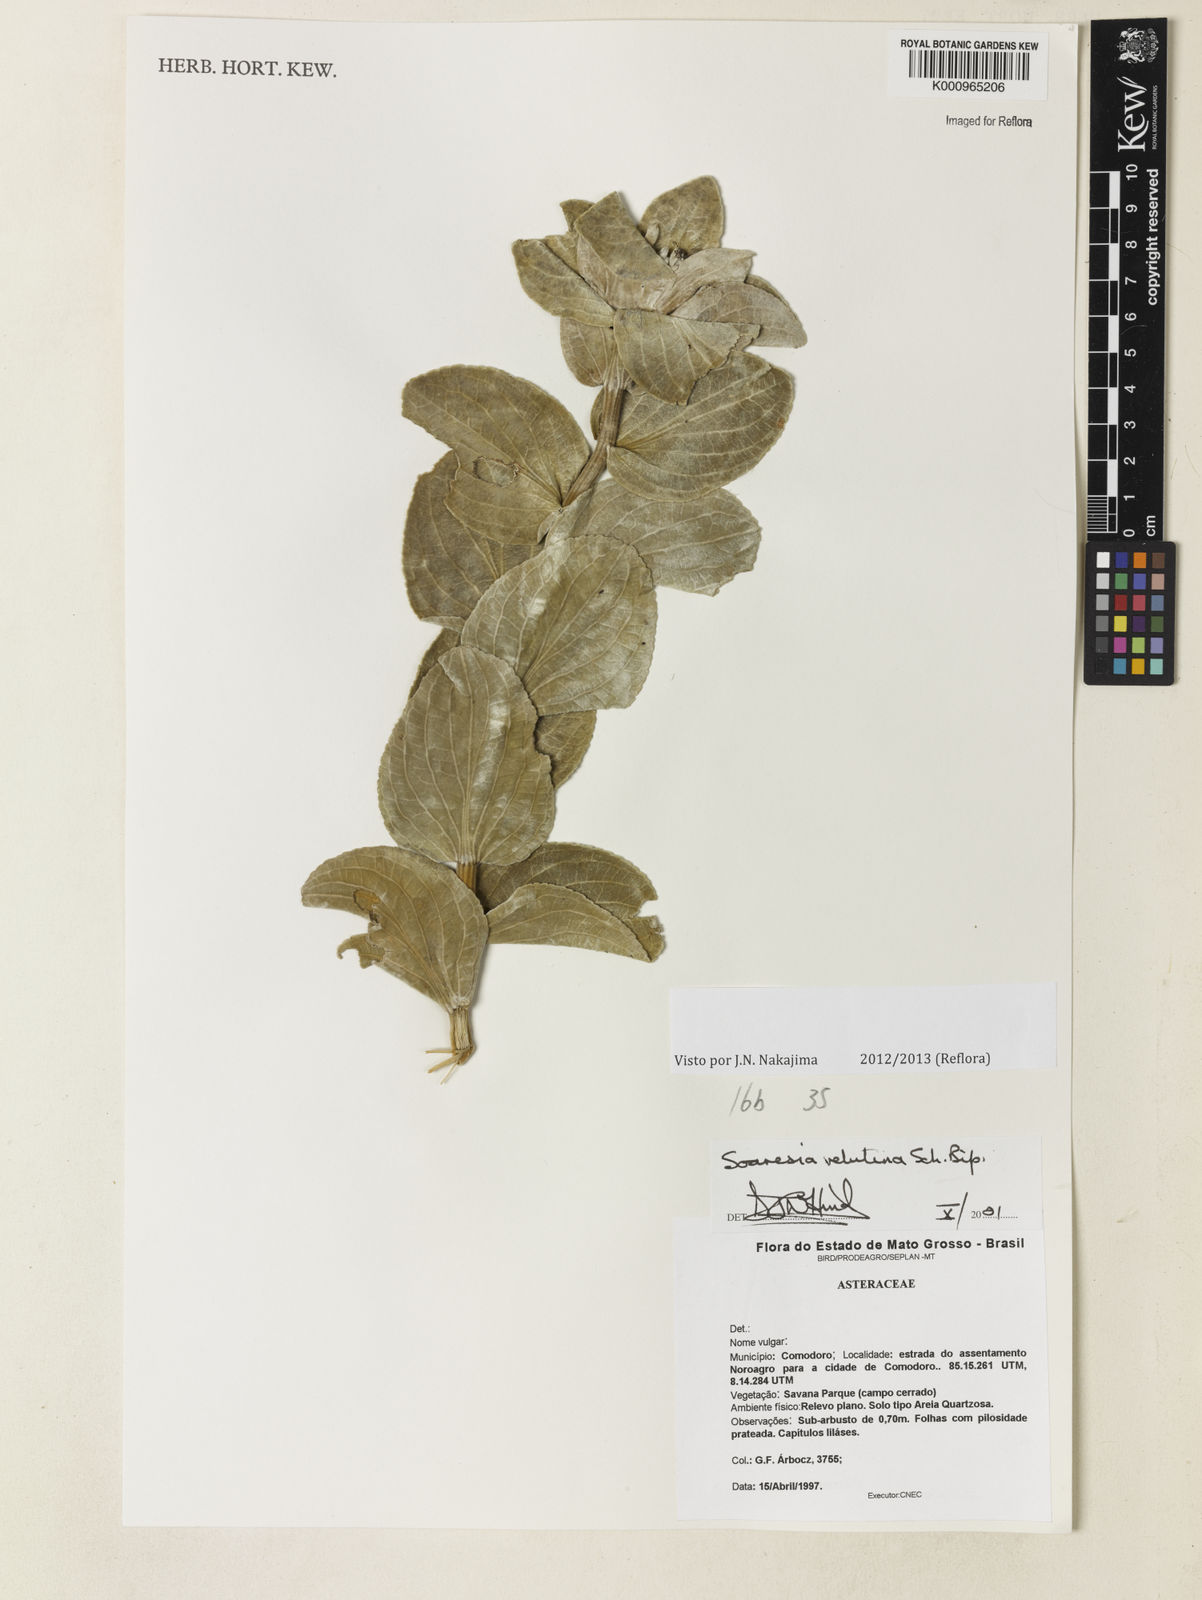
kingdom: Plantae
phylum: Tracheophyta
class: Magnoliopsida
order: Asterales
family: Asteraceae
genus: Soaresia
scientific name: Soaresia velutina
